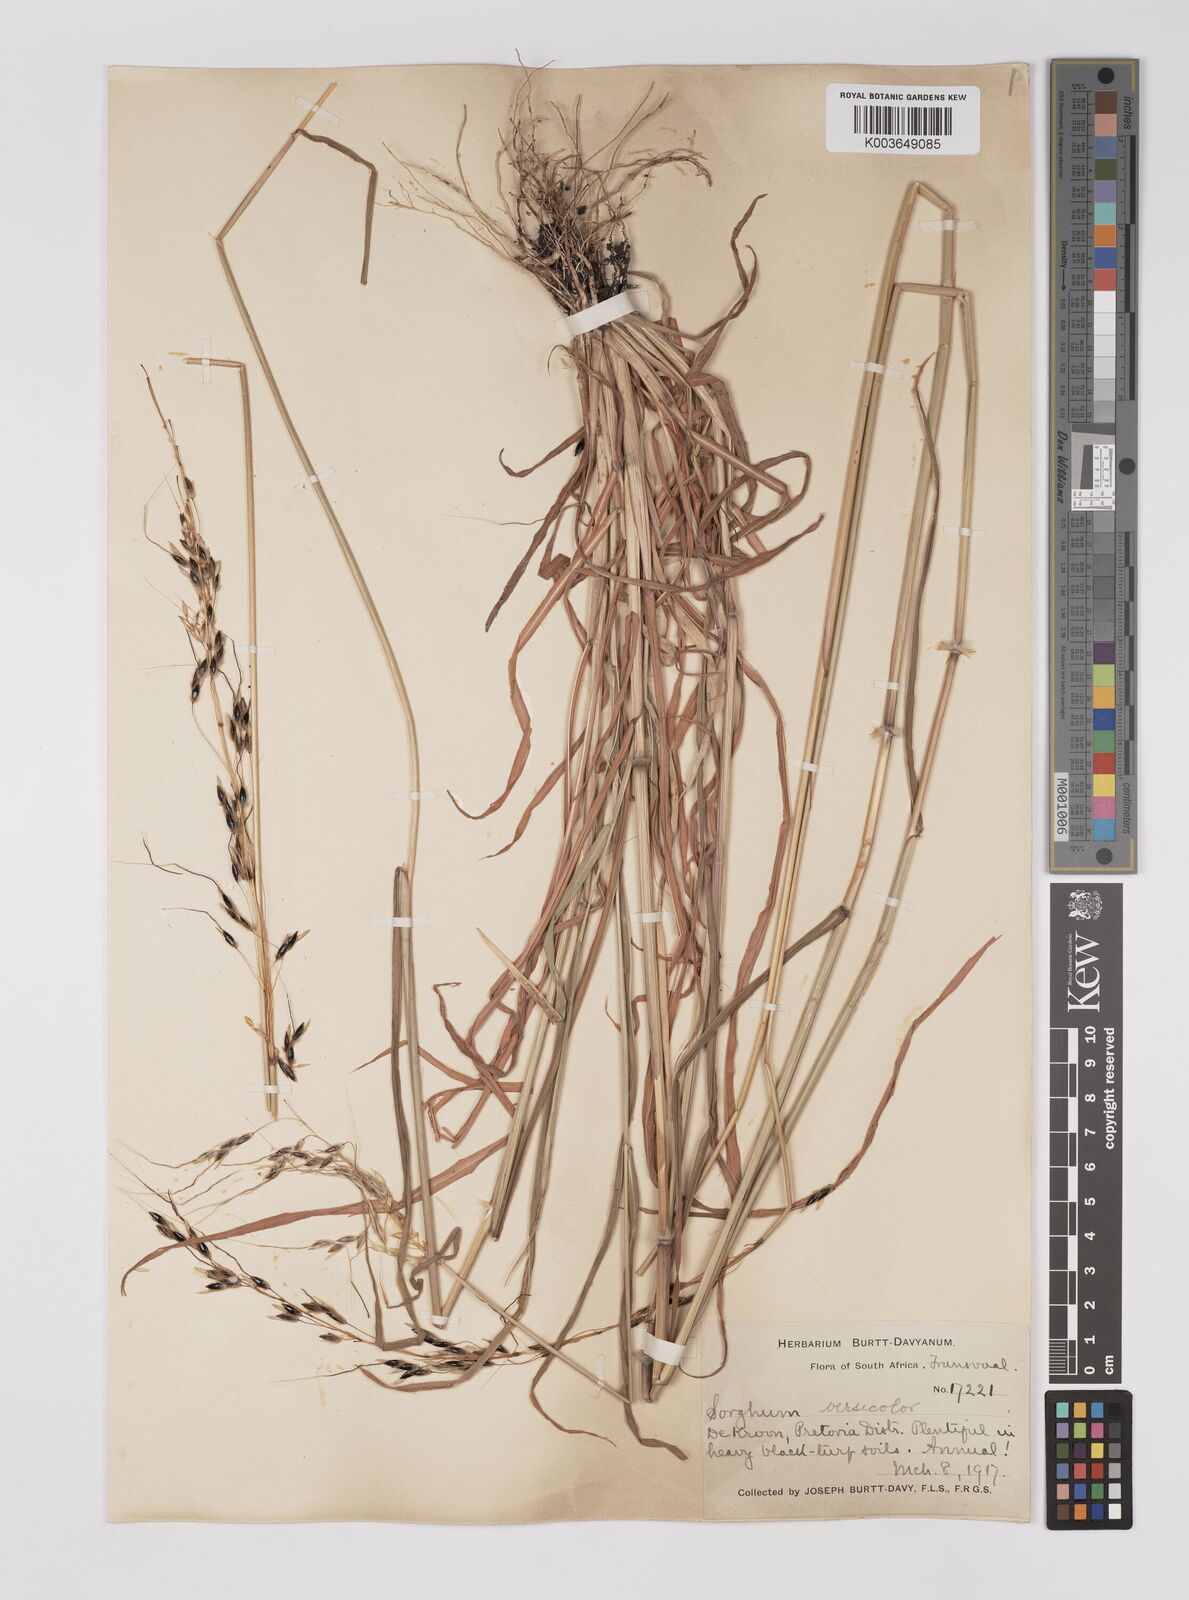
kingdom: Plantae
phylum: Tracheophyta
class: Liliopsida
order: Poales
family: Poaceae
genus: Sarga
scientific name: Sarga versicolor
